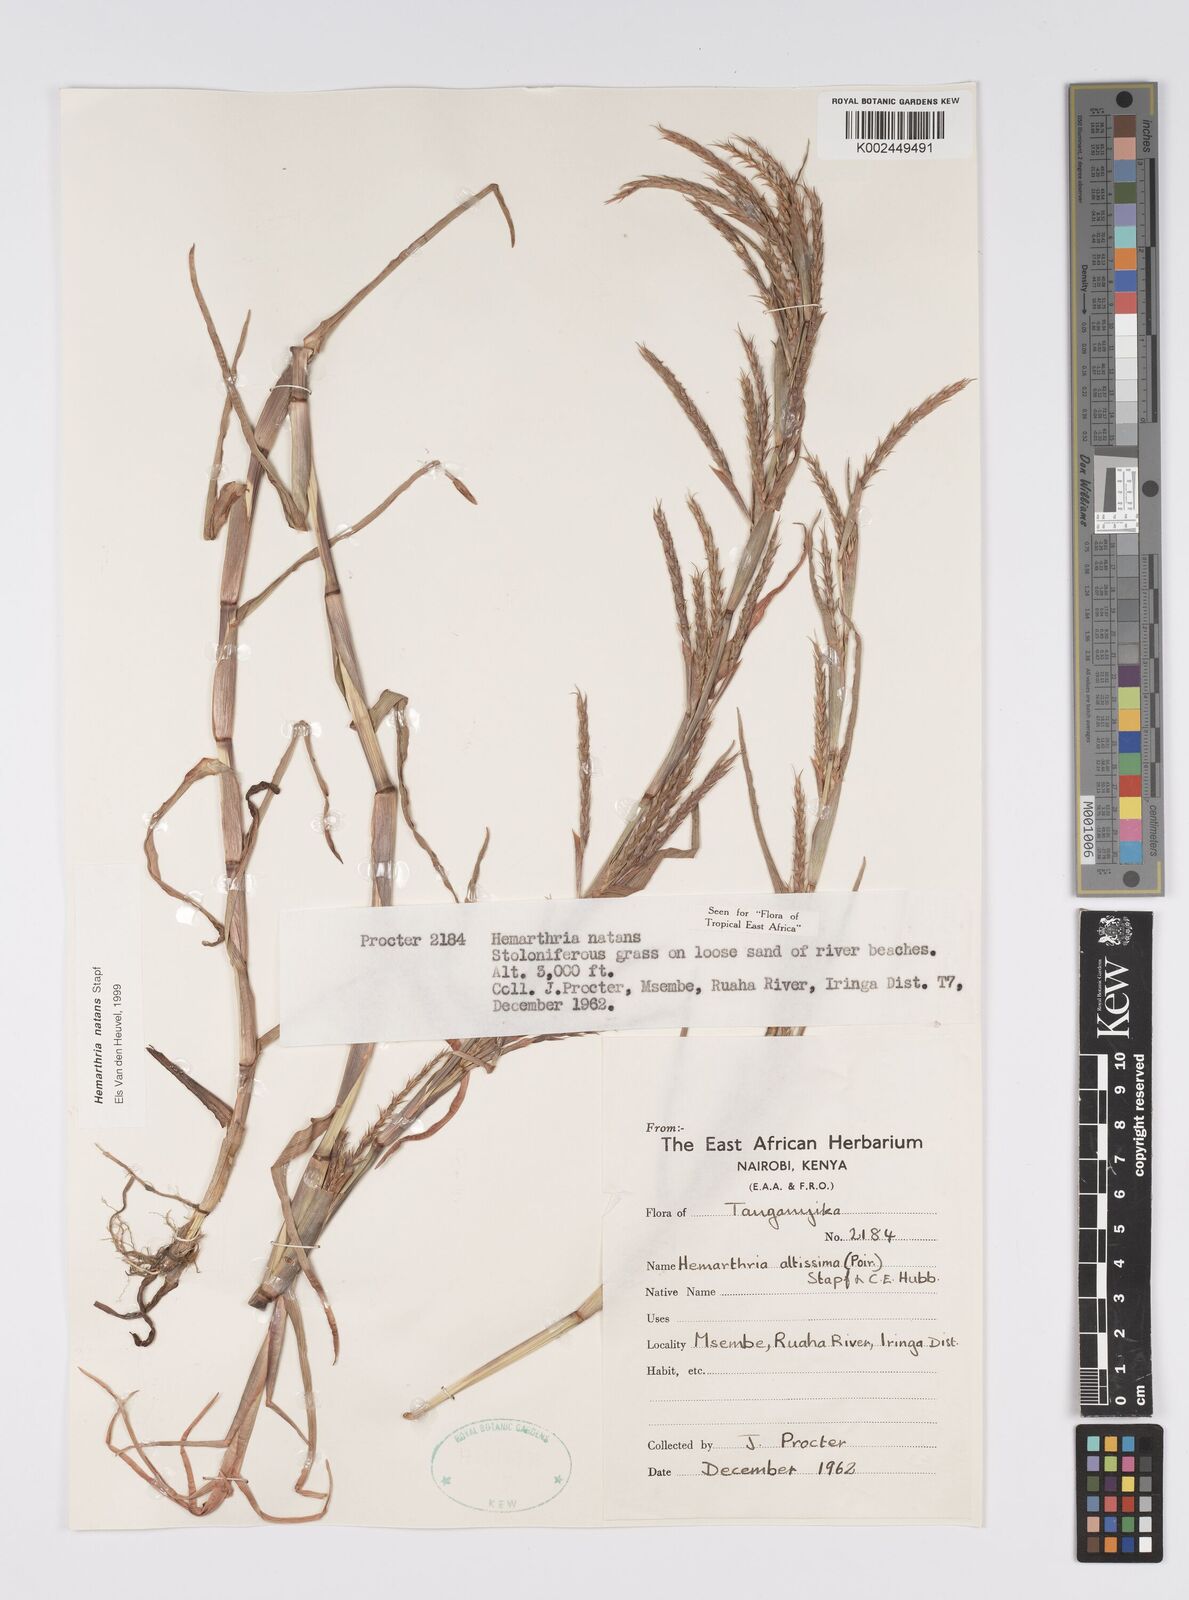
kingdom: Plantae
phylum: Tracheophyta
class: Liliopsida
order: Poales
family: Poaceae
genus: Hemarthria
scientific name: Hemarthria natans
